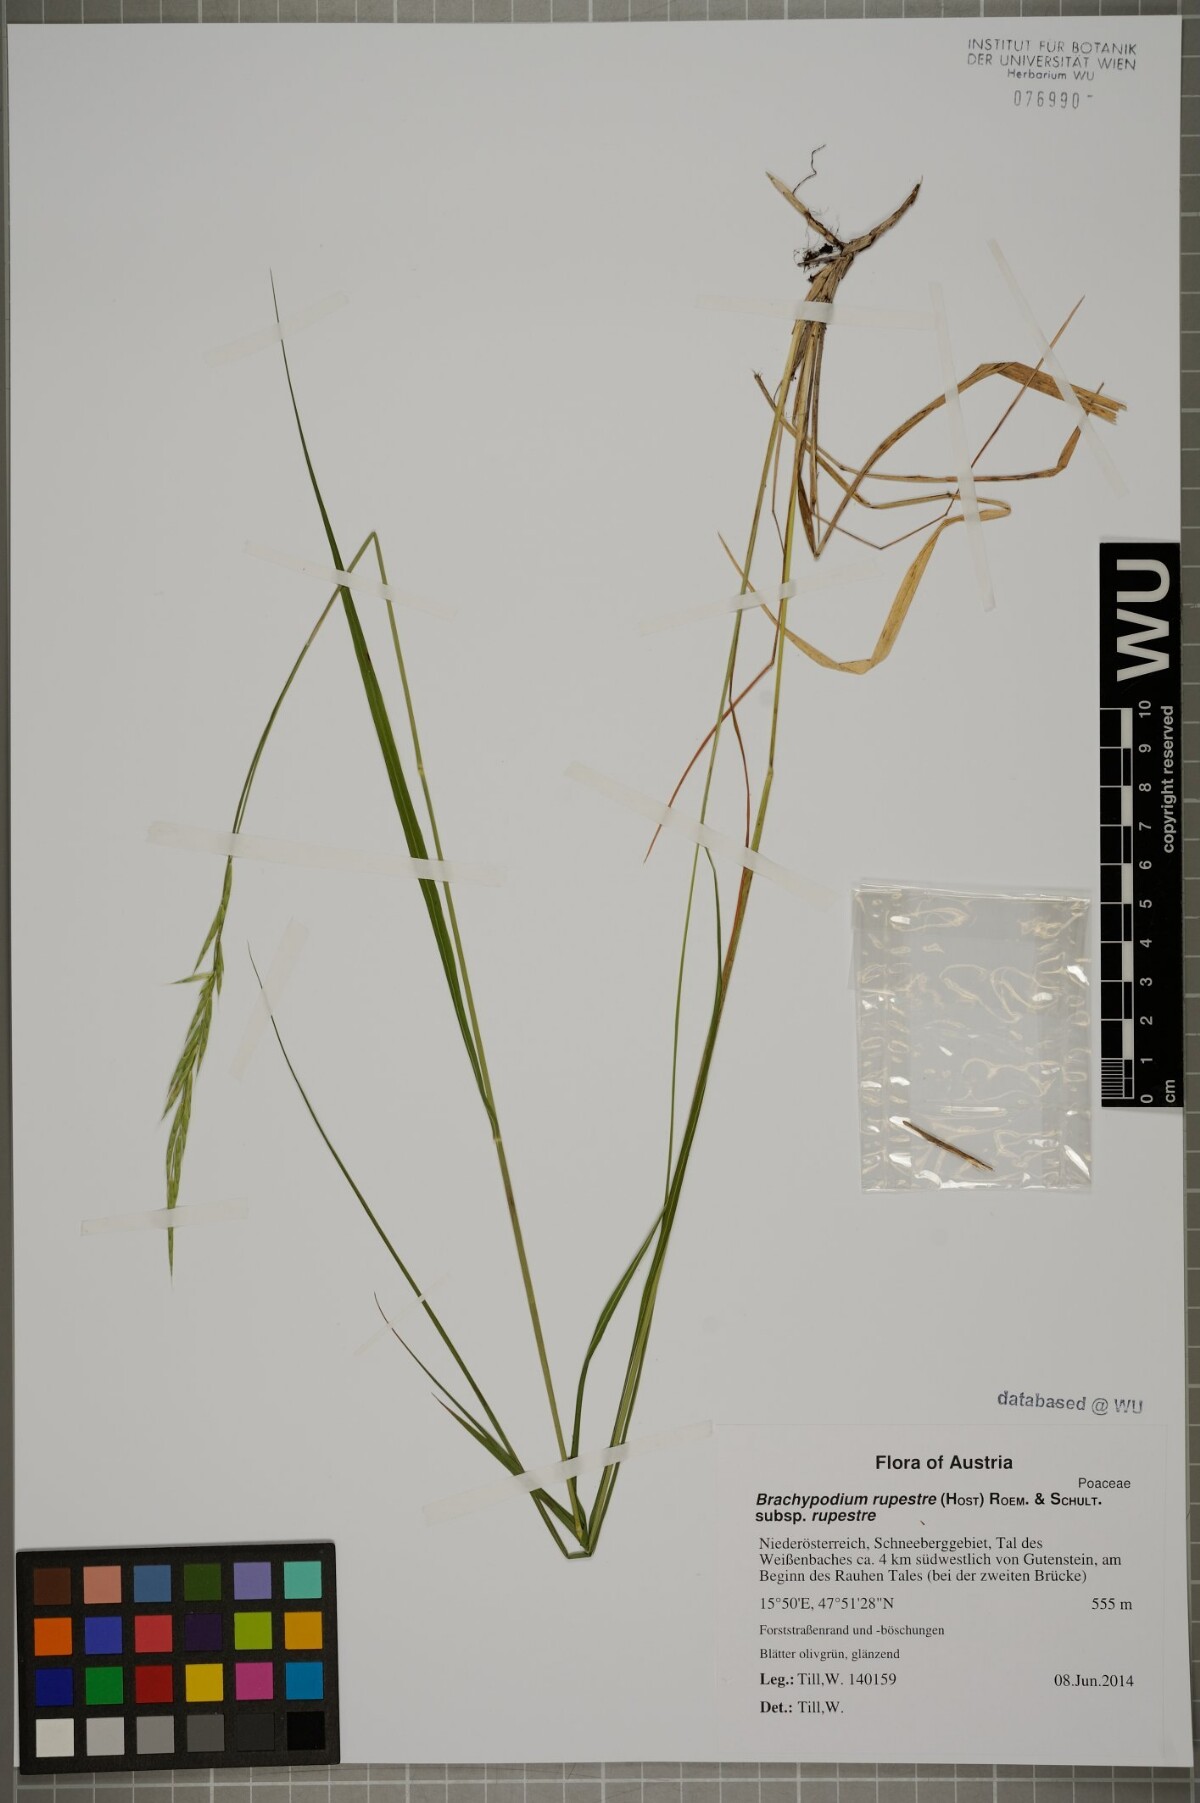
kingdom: Plantae
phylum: Tracheophyta
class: Liliopsida
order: Poales
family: Poaceae
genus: Brachypodium
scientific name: Brachypodium pinnatum
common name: Tor grass
